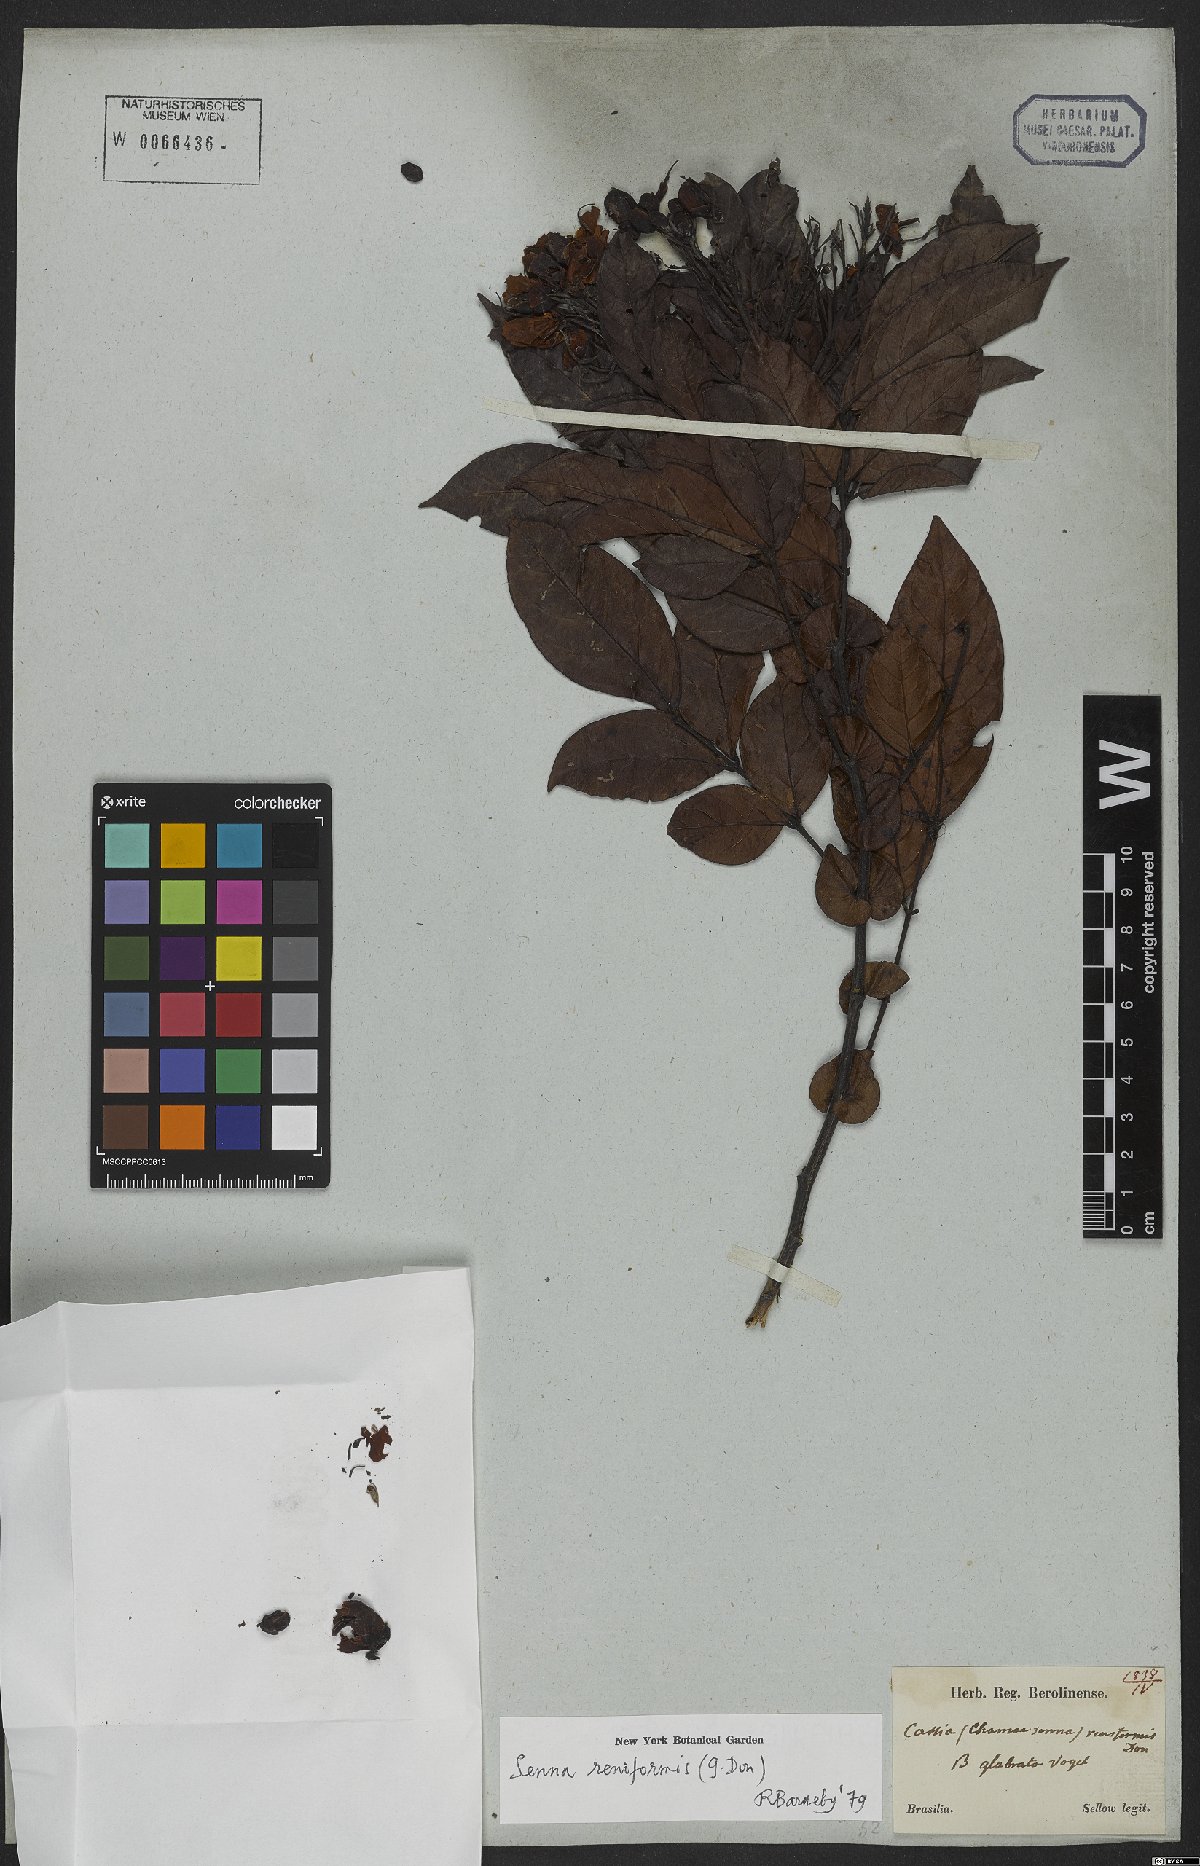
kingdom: Plantae
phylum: Tracheophyta
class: Magnoliopsida
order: Fabales
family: Fabaceae
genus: Senna
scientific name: Senna reniformis
